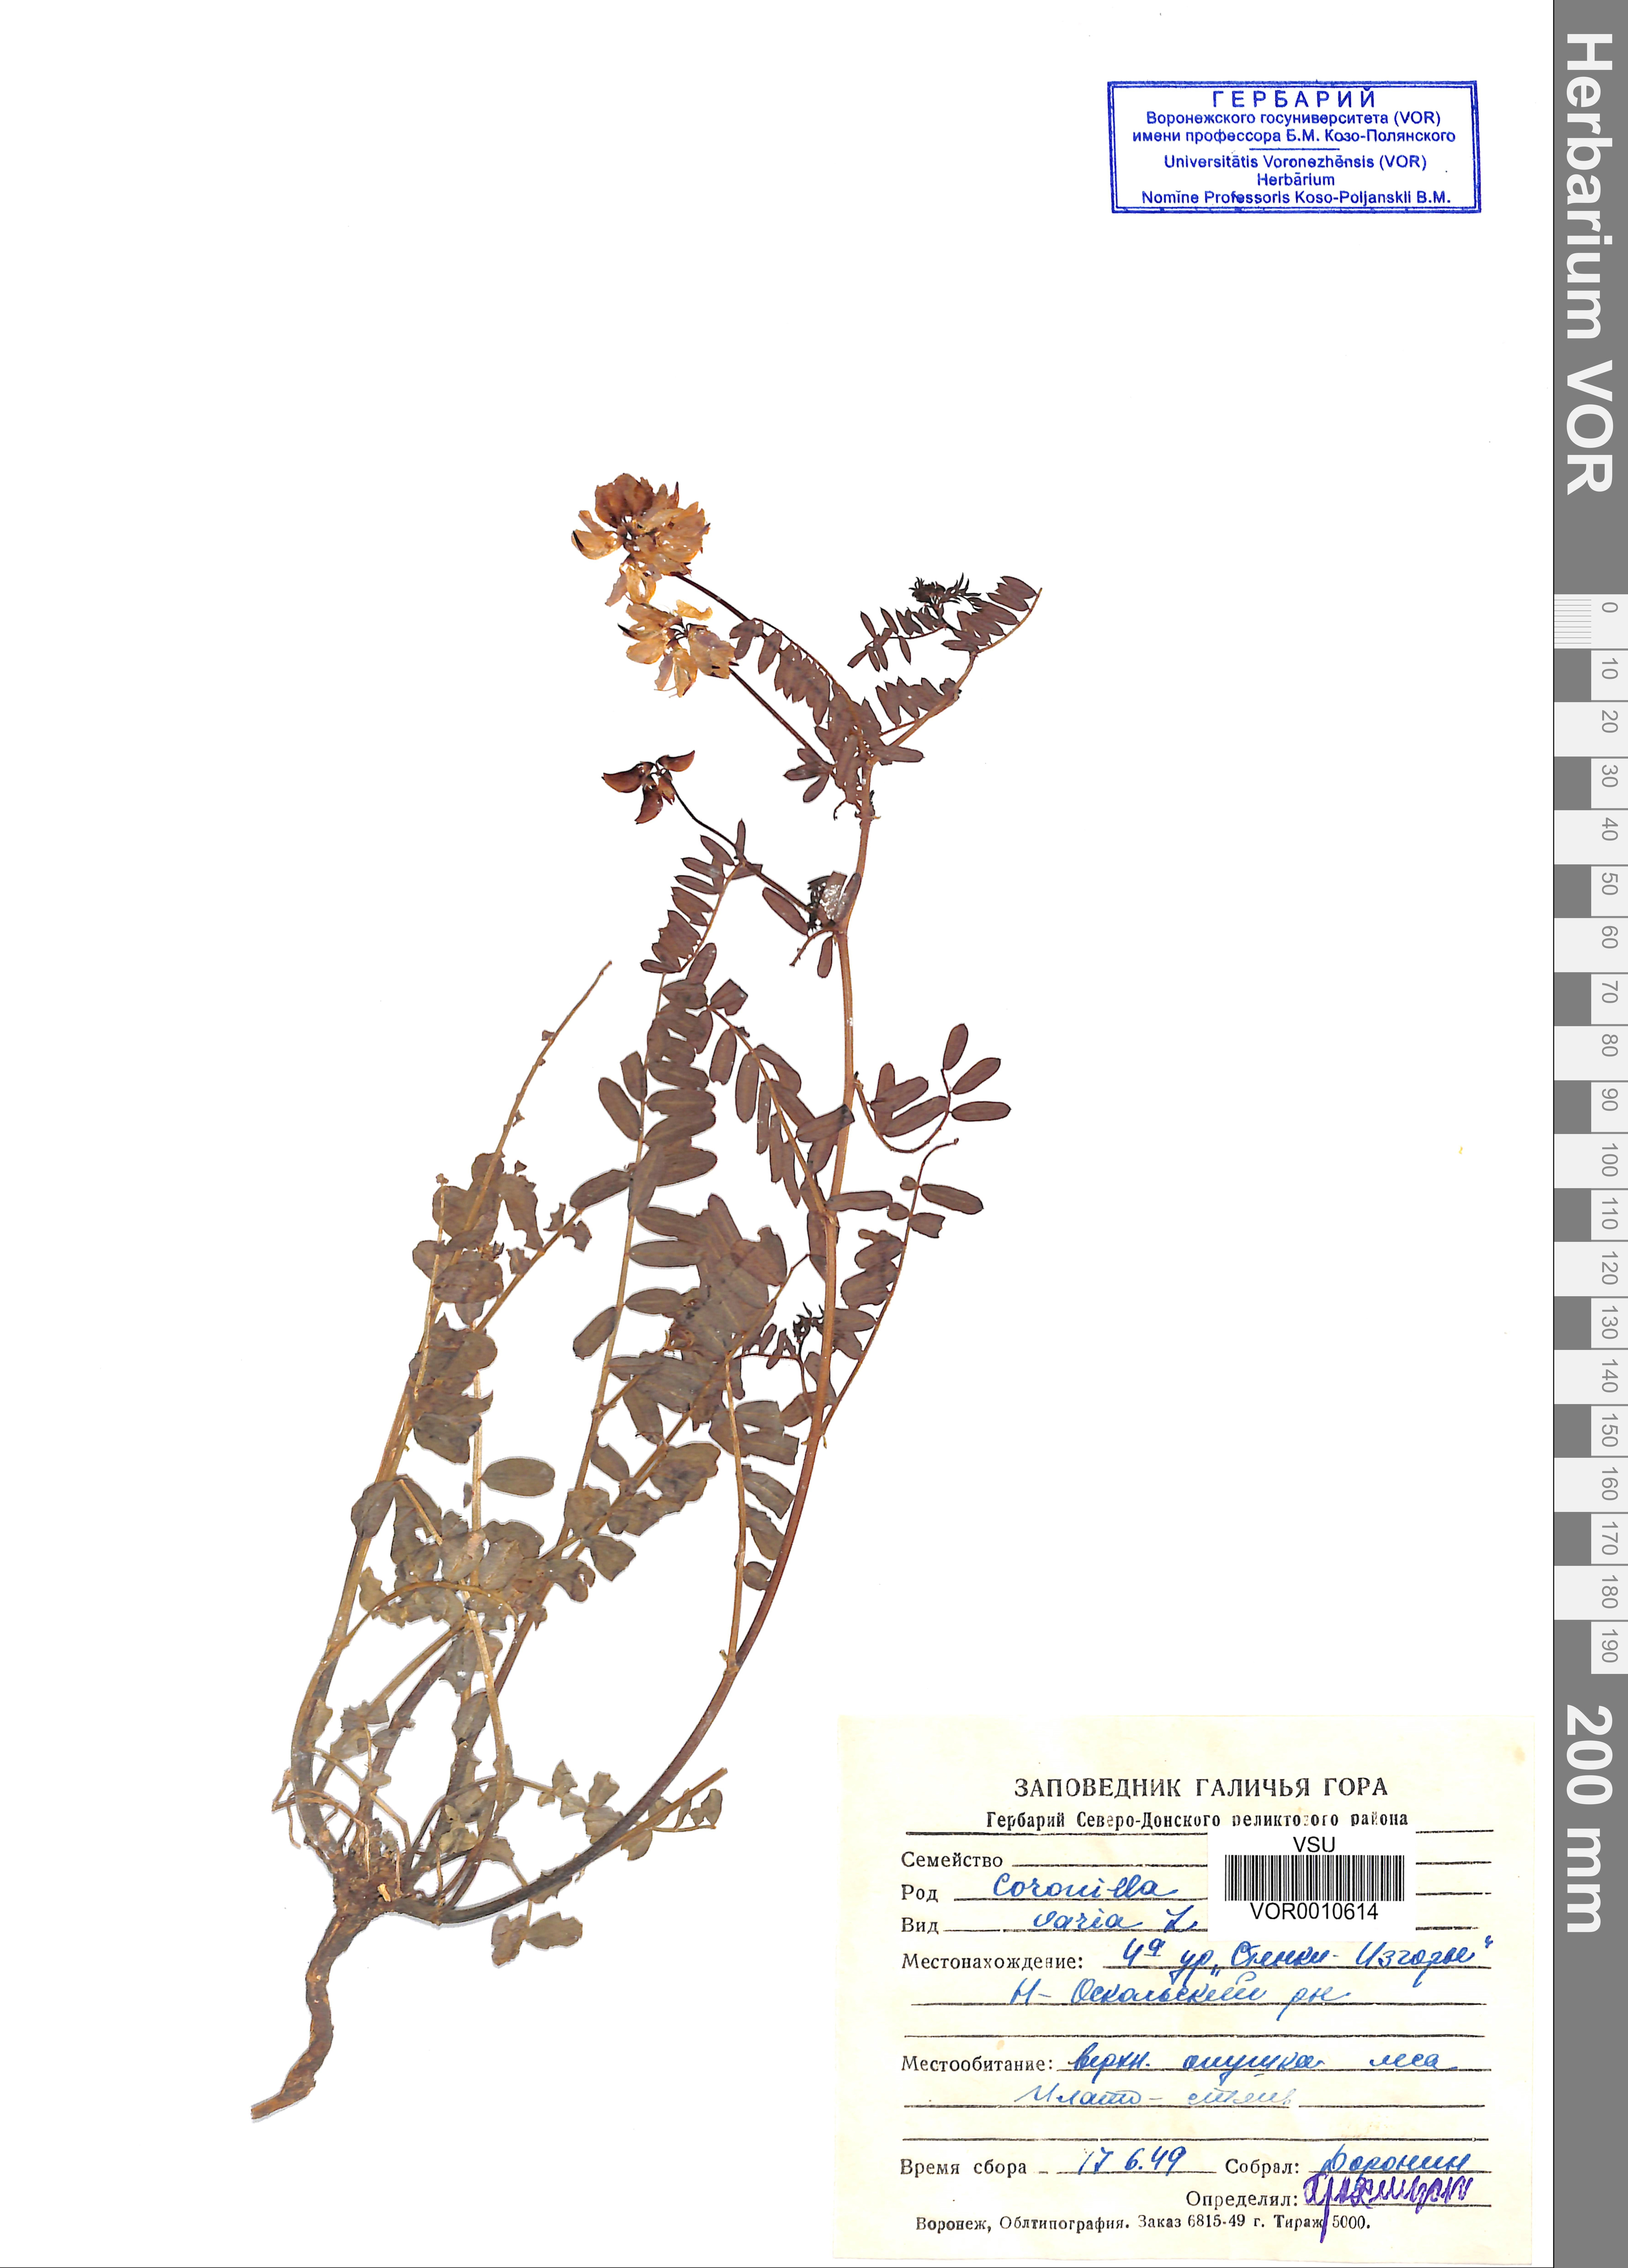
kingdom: Plantae
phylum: Tracheophyta
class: Magnoliopsida
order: Fabales
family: Fabaceae
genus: Coronilla
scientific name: Coronilla varia
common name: Crownvetch
